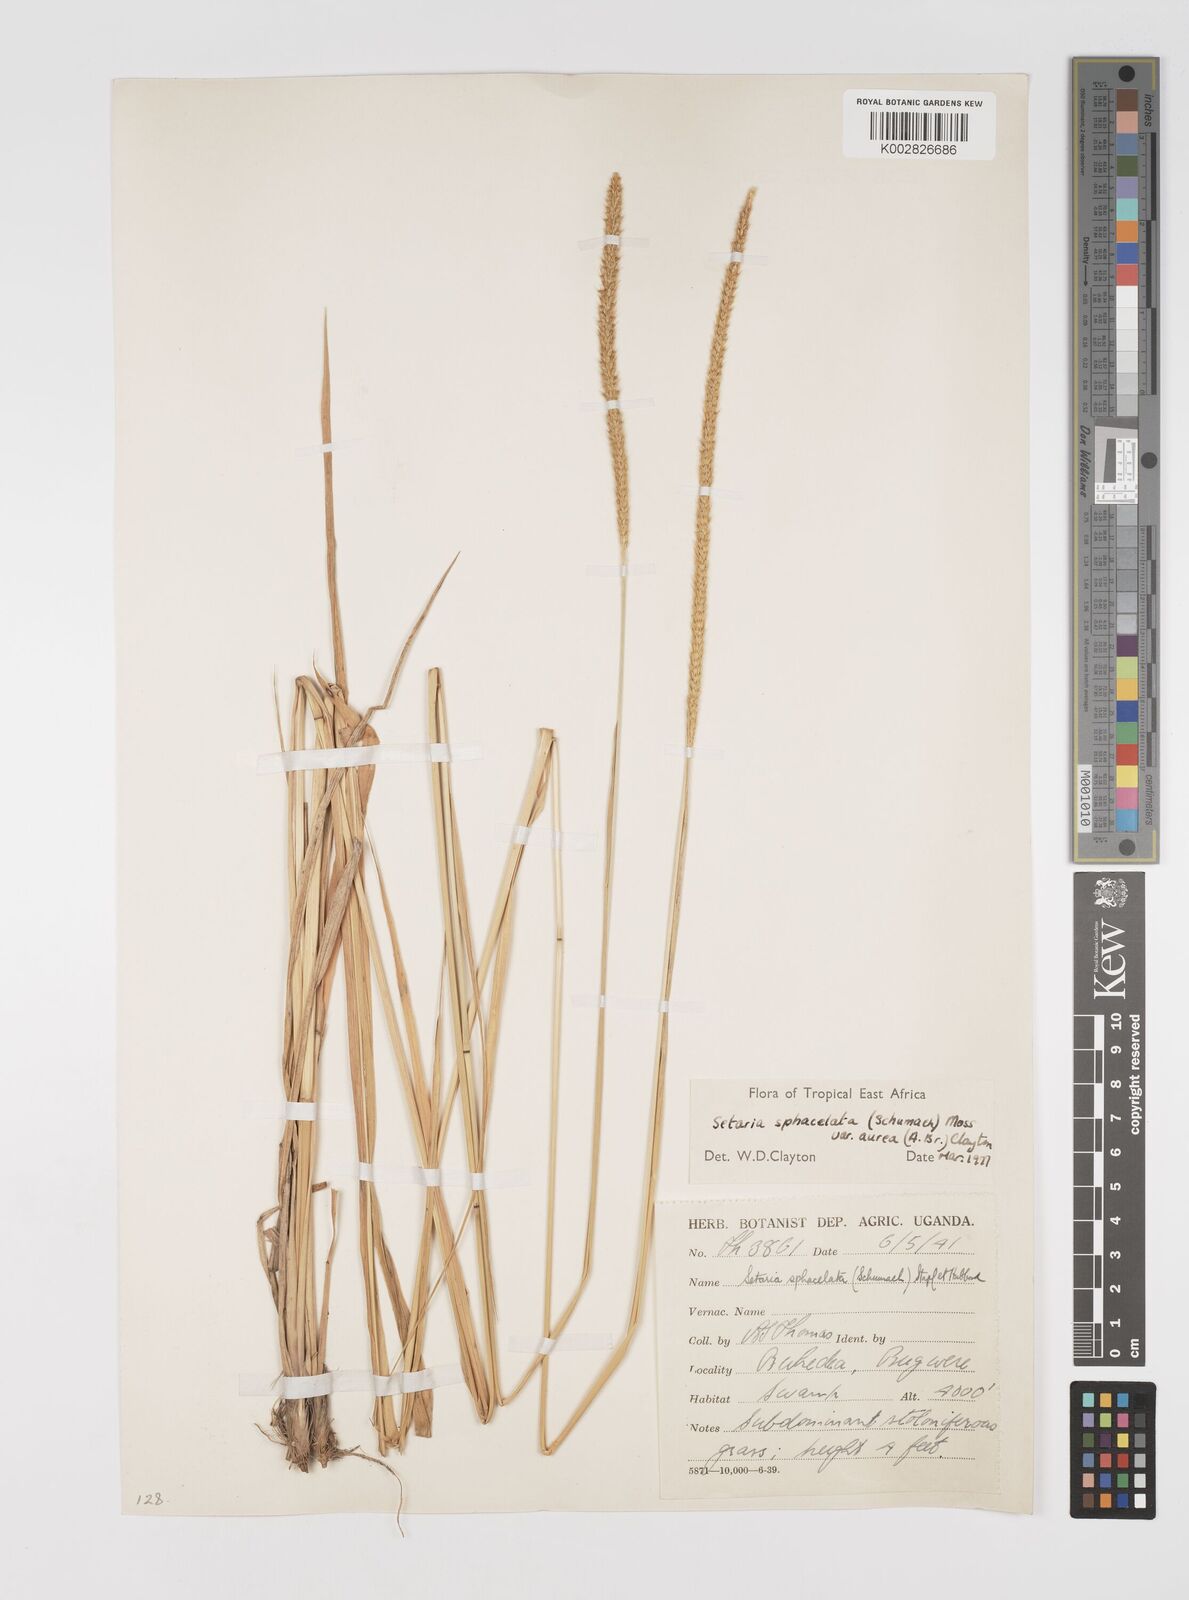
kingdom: Plantae
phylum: Tracheophyta
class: Liliopsida
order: Poales
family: Poaceae
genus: Setaria
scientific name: Setaria sphacelata
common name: African bristlegrass
